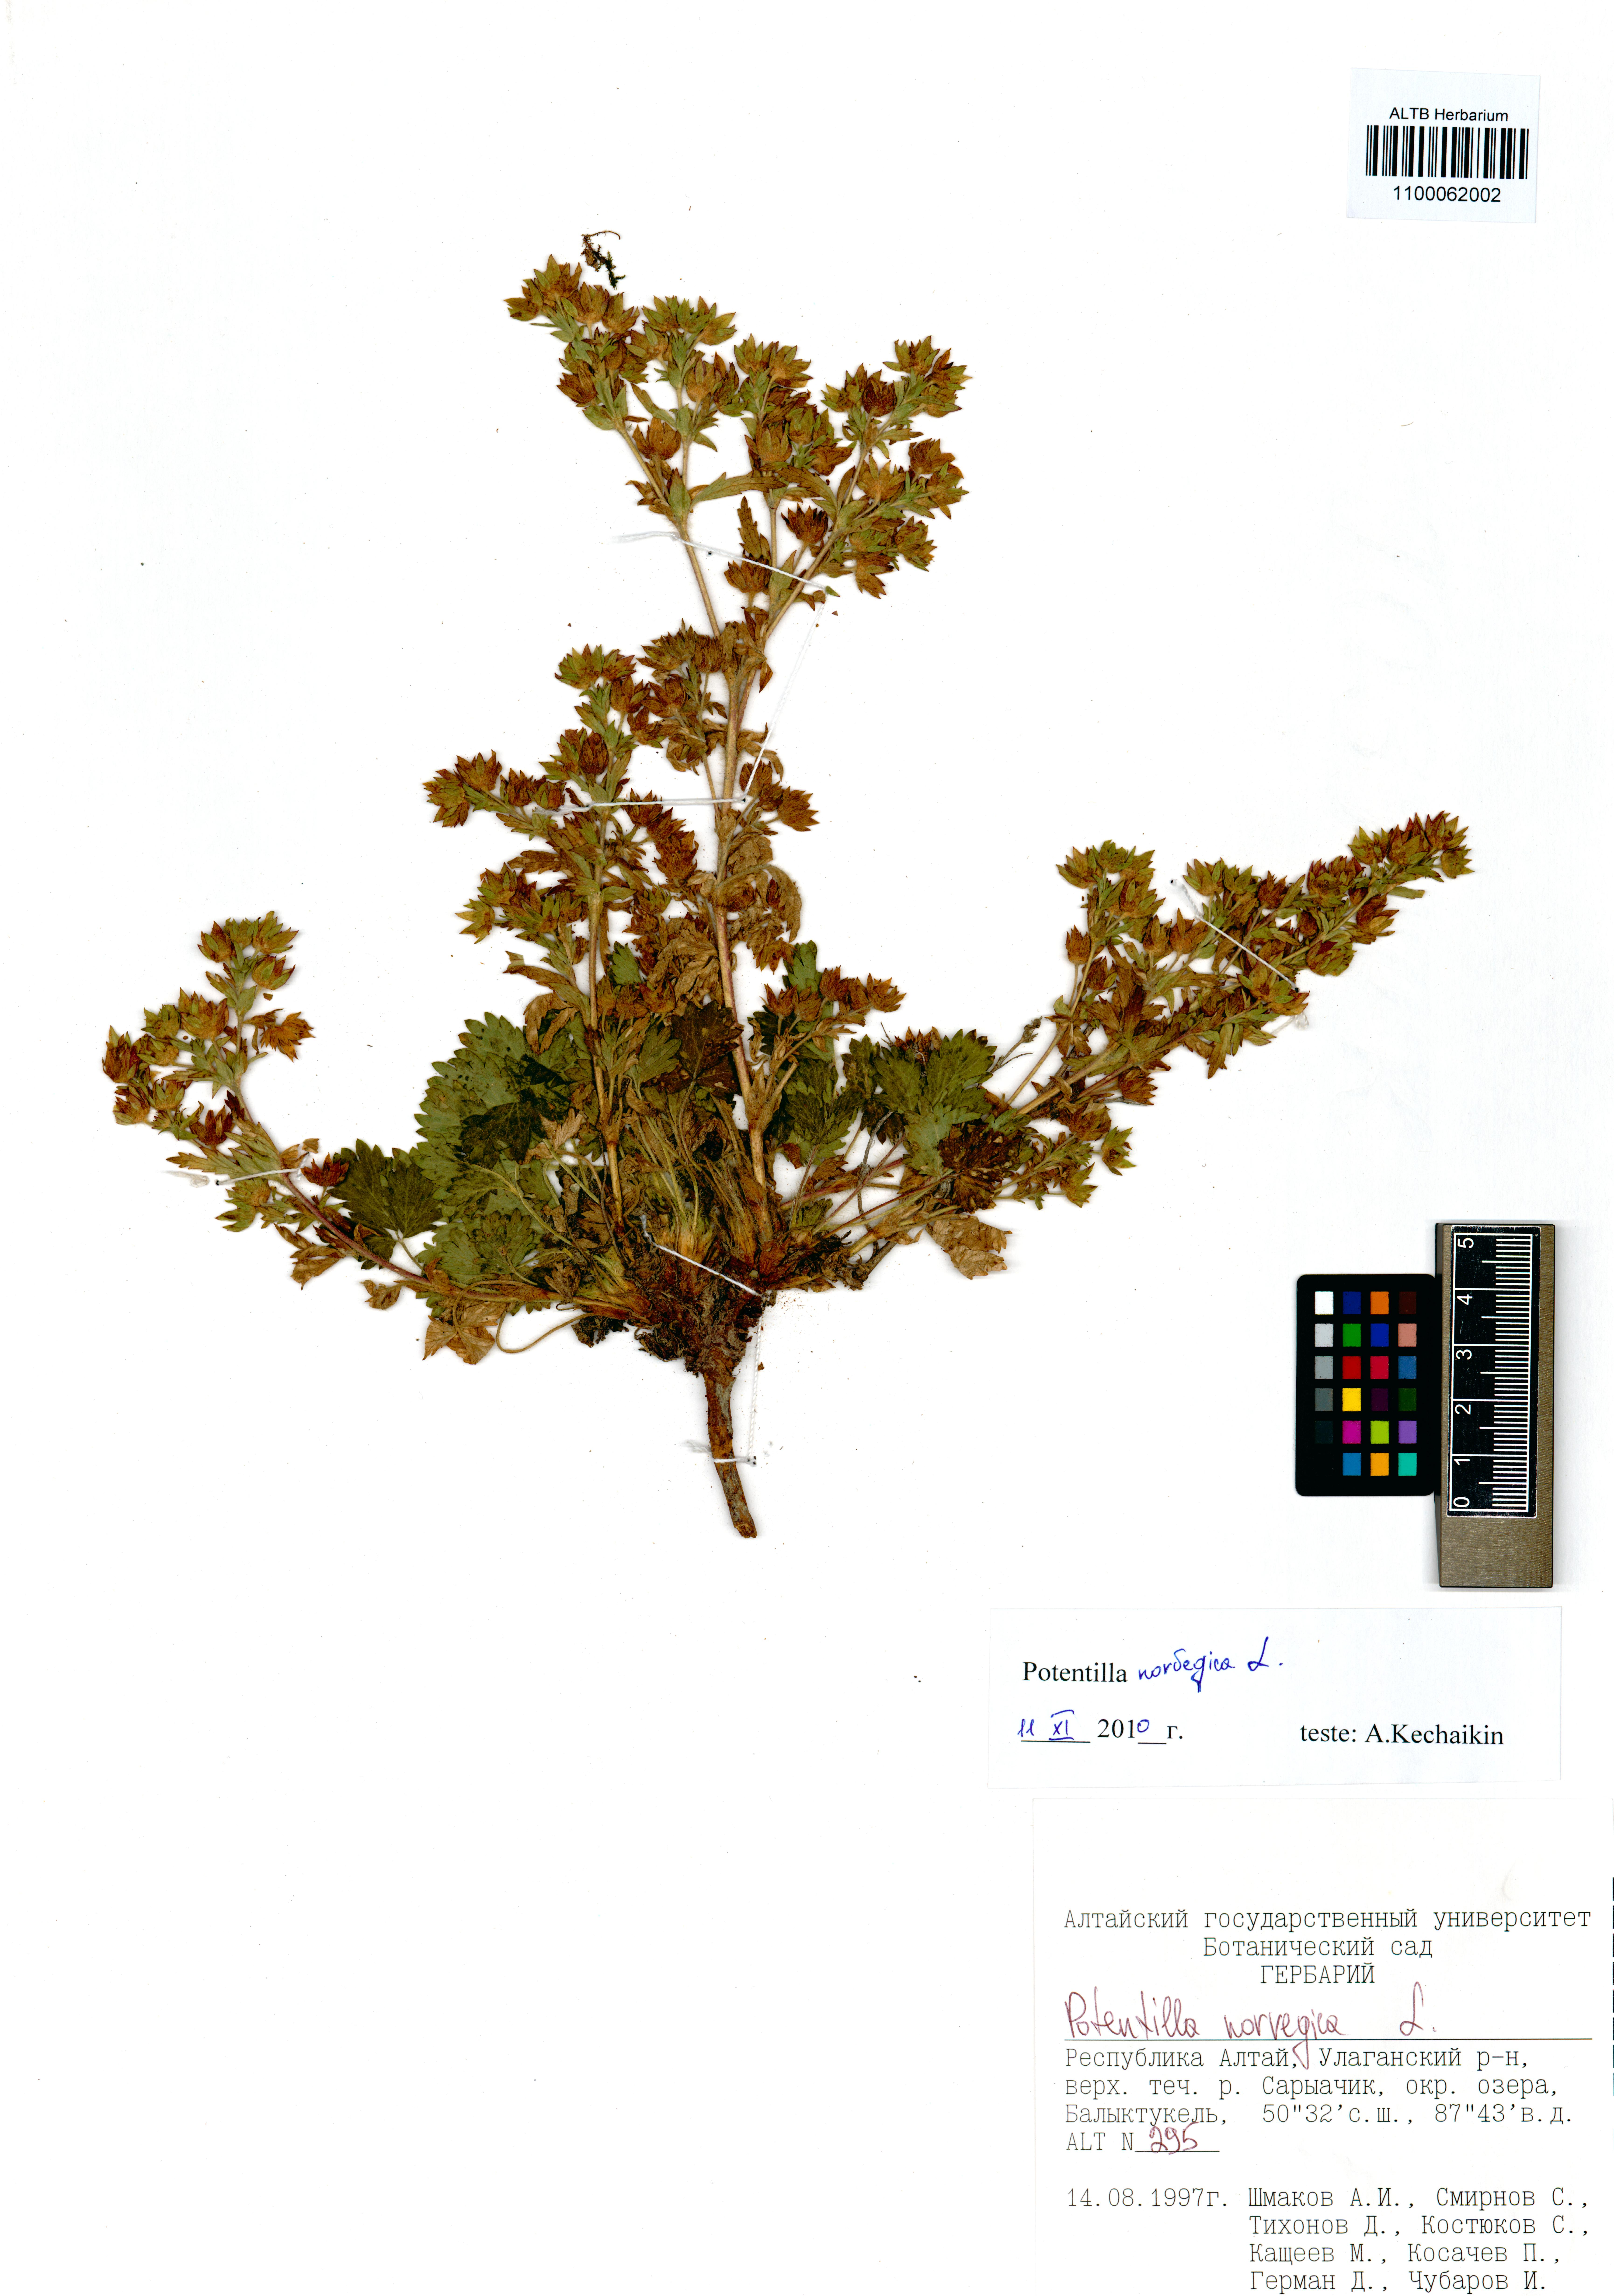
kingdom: Plantae
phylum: Tracheophyta
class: Magnoliopsida
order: Rosales
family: Rosaceae
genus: Potentilla
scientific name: Potentilla norvegica
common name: Ternate-leaved cinquefoil
